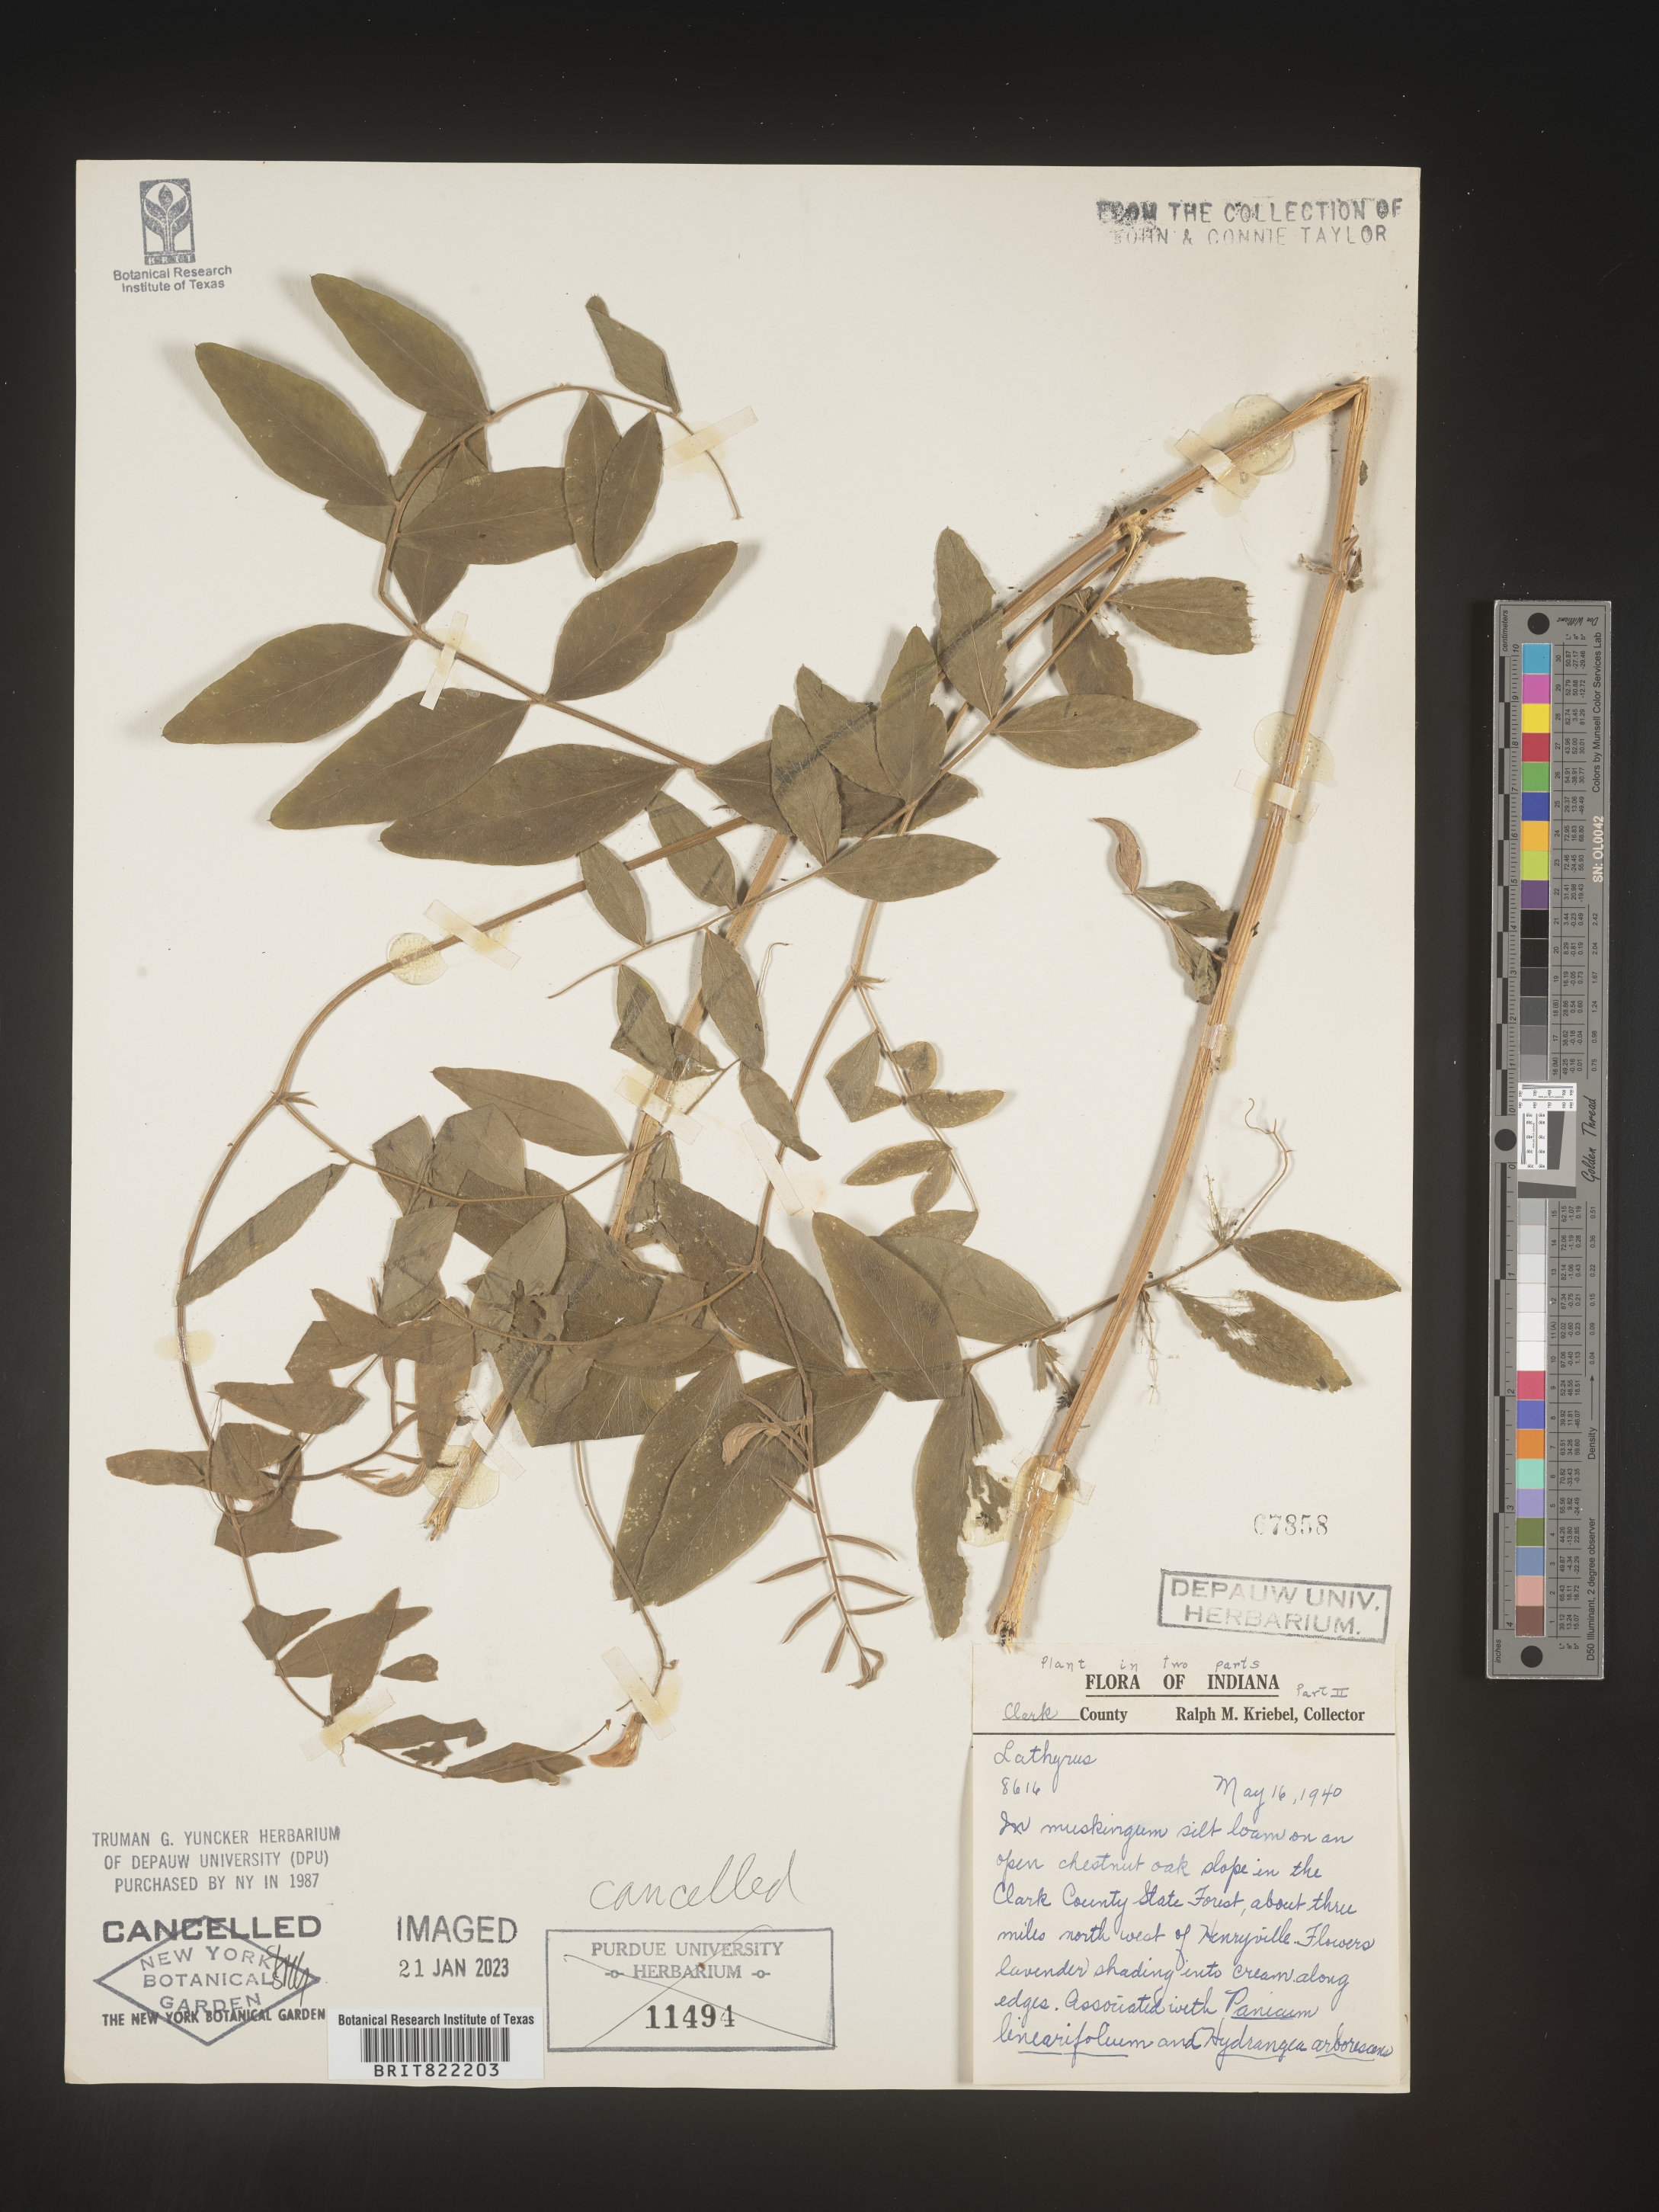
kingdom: Plantae
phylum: Tracheophyta
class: Magnoliopsida
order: Fabales
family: Fabaceae
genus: Lathyrus
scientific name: Lathyrus
